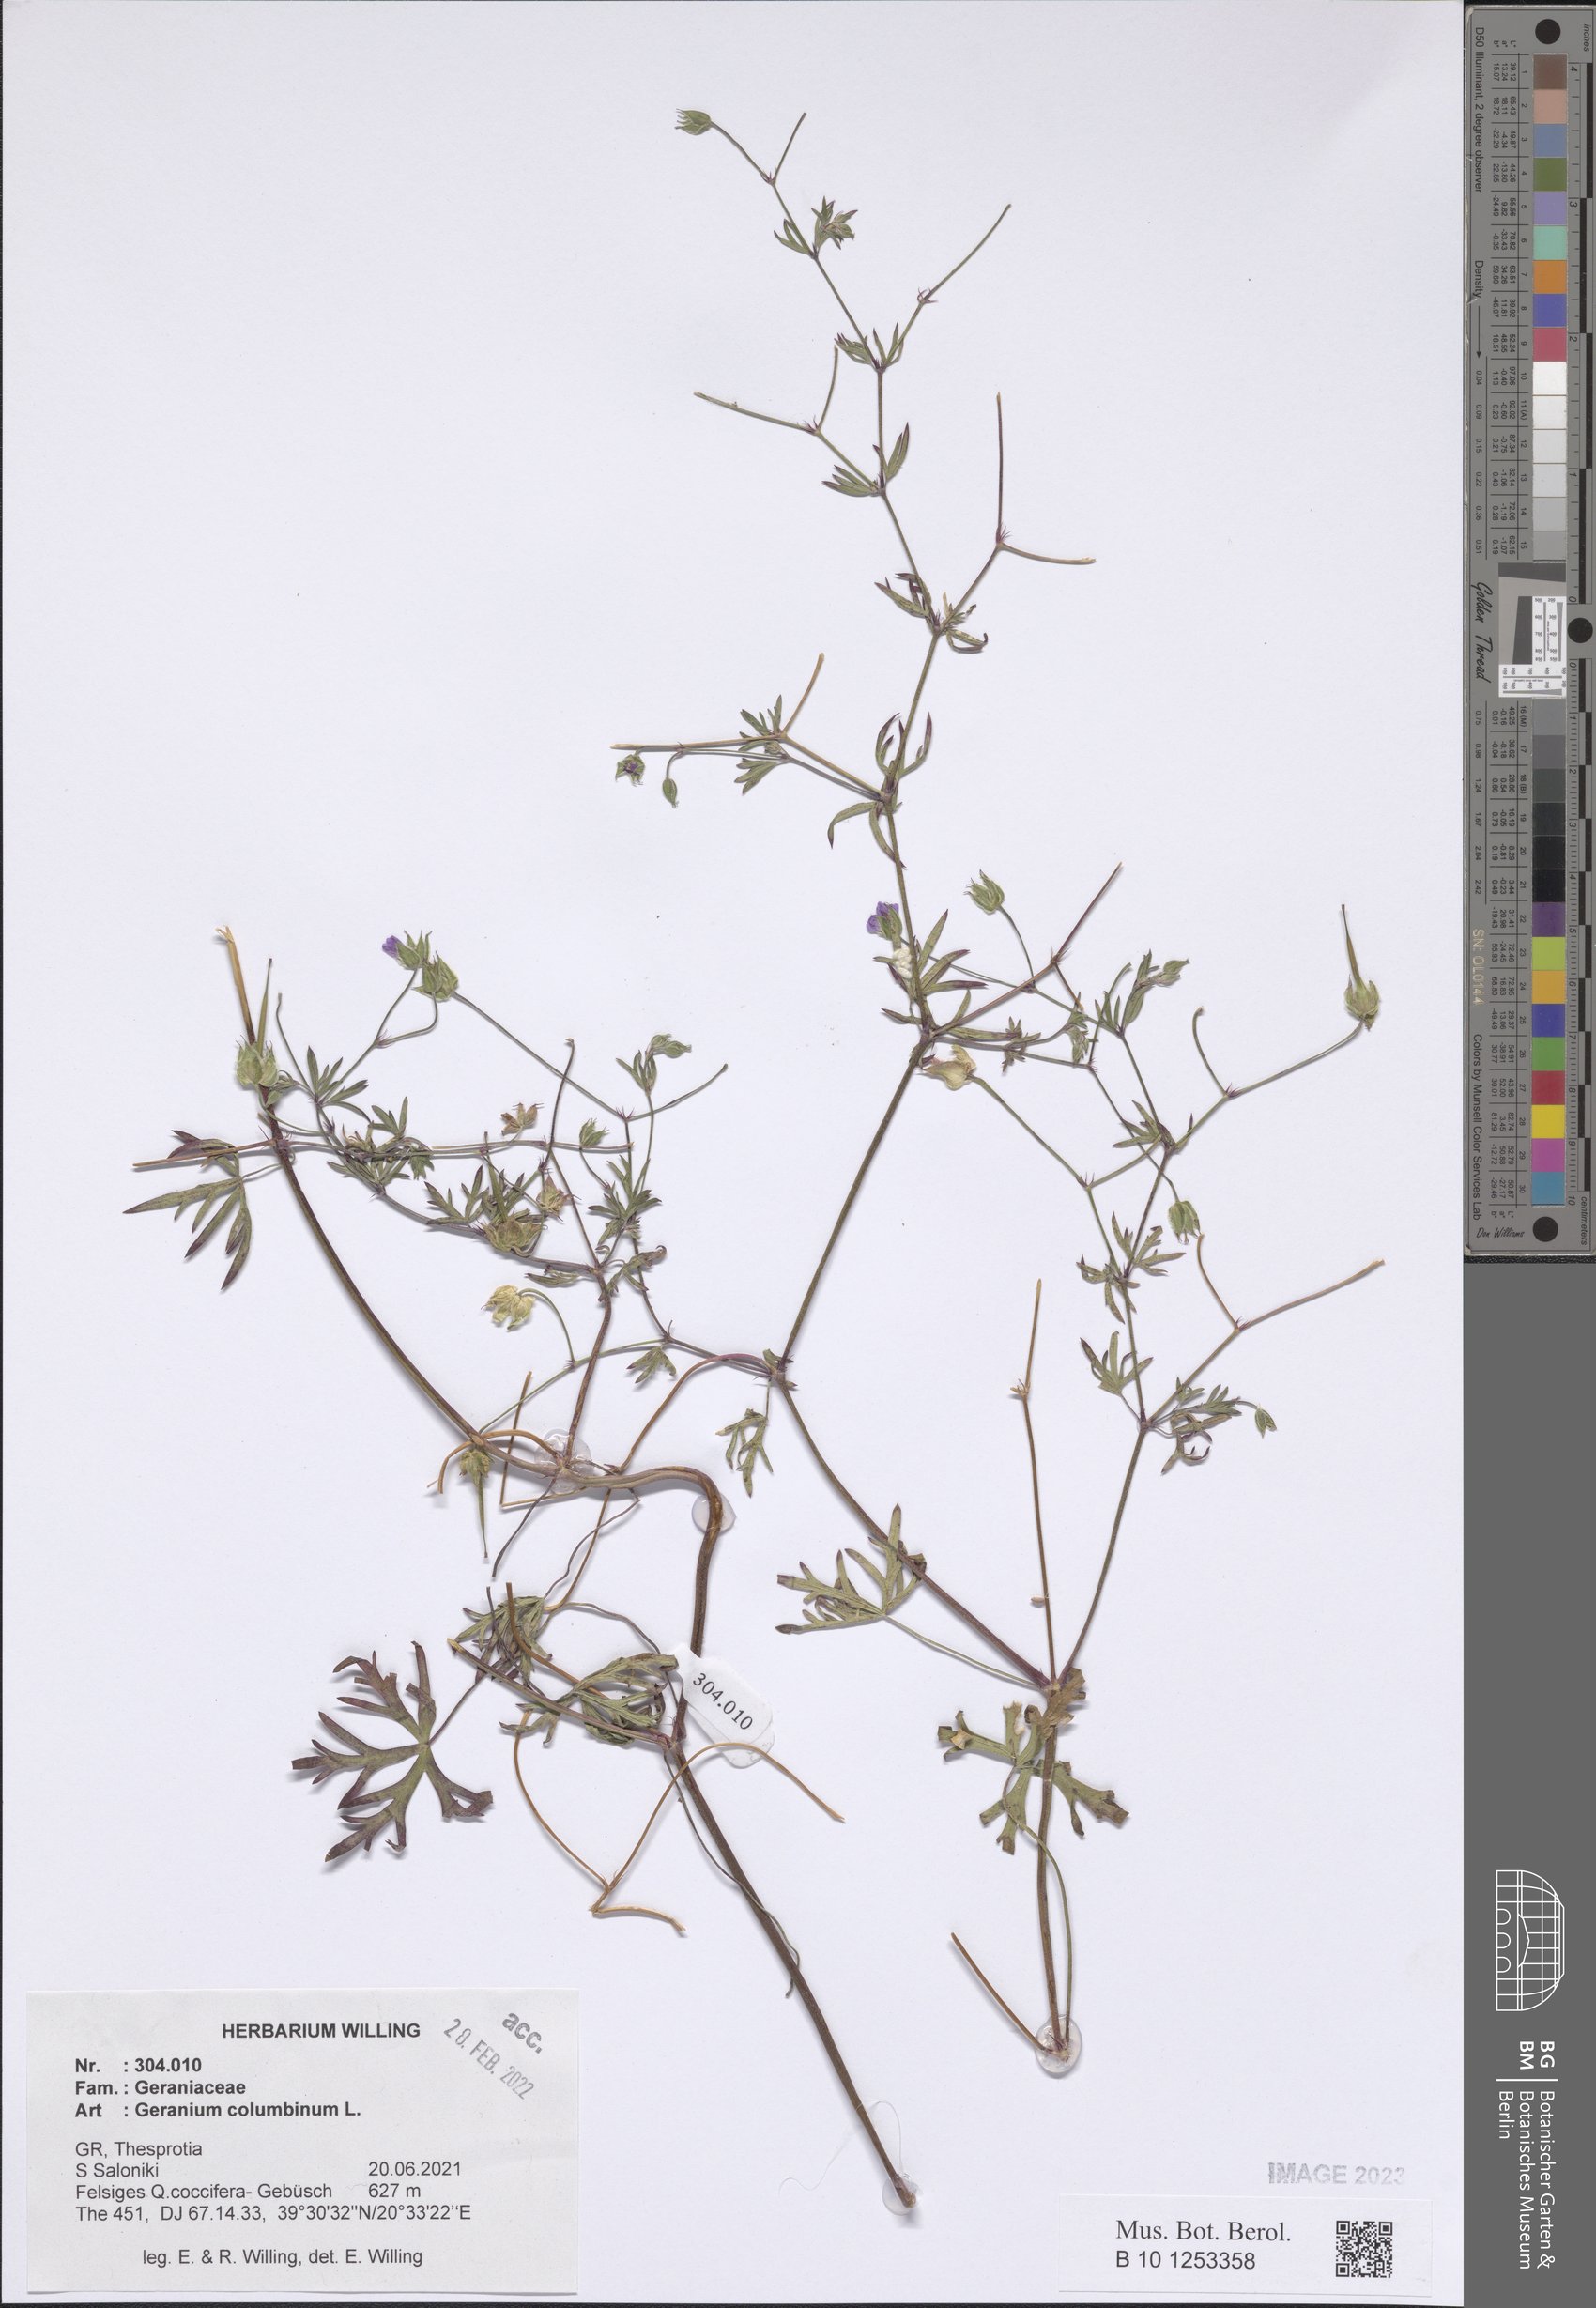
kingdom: Plantae
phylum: Tracheophyta
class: Magnoliopsida
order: Geraniales
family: Geraniaceae
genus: Geranium
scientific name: Geranium columbinum
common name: Long-stalked crane's-bill
